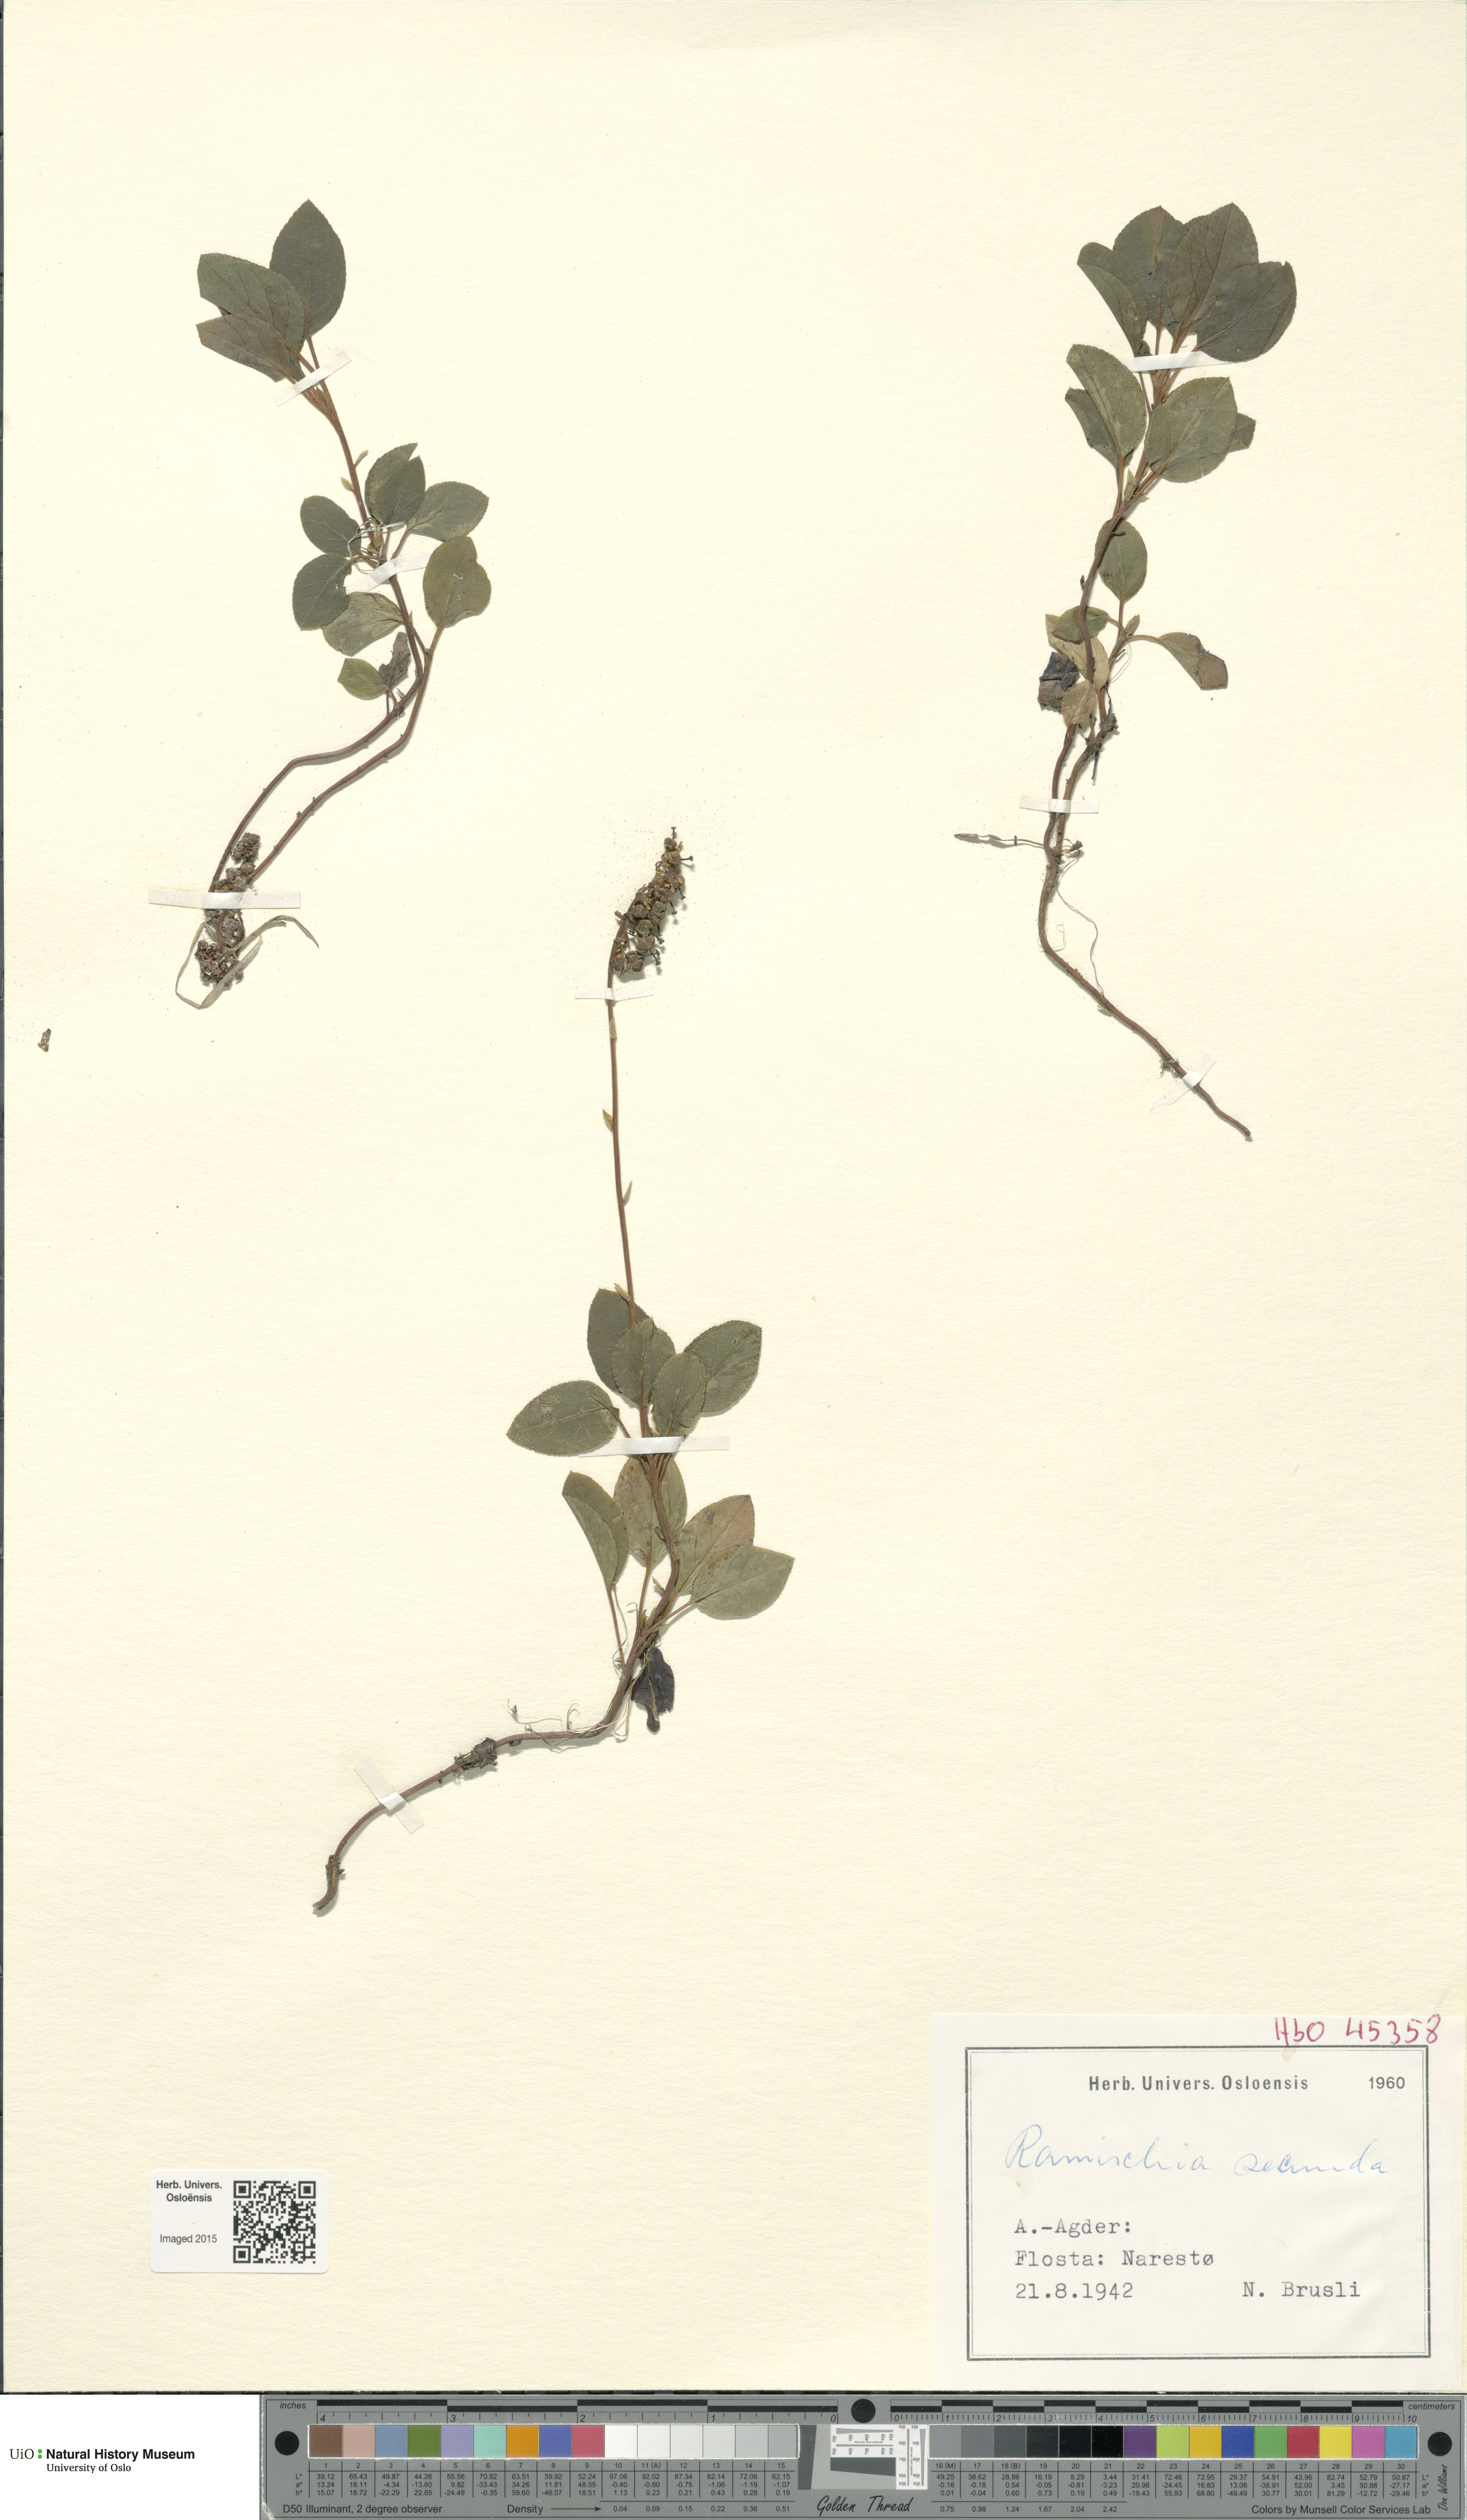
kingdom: Plantae
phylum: Tracheophyta
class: Magnoliopsida
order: Ericales
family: Ericaceae
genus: Orthilia
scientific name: Orthilia secunda
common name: One-sided orthilia
